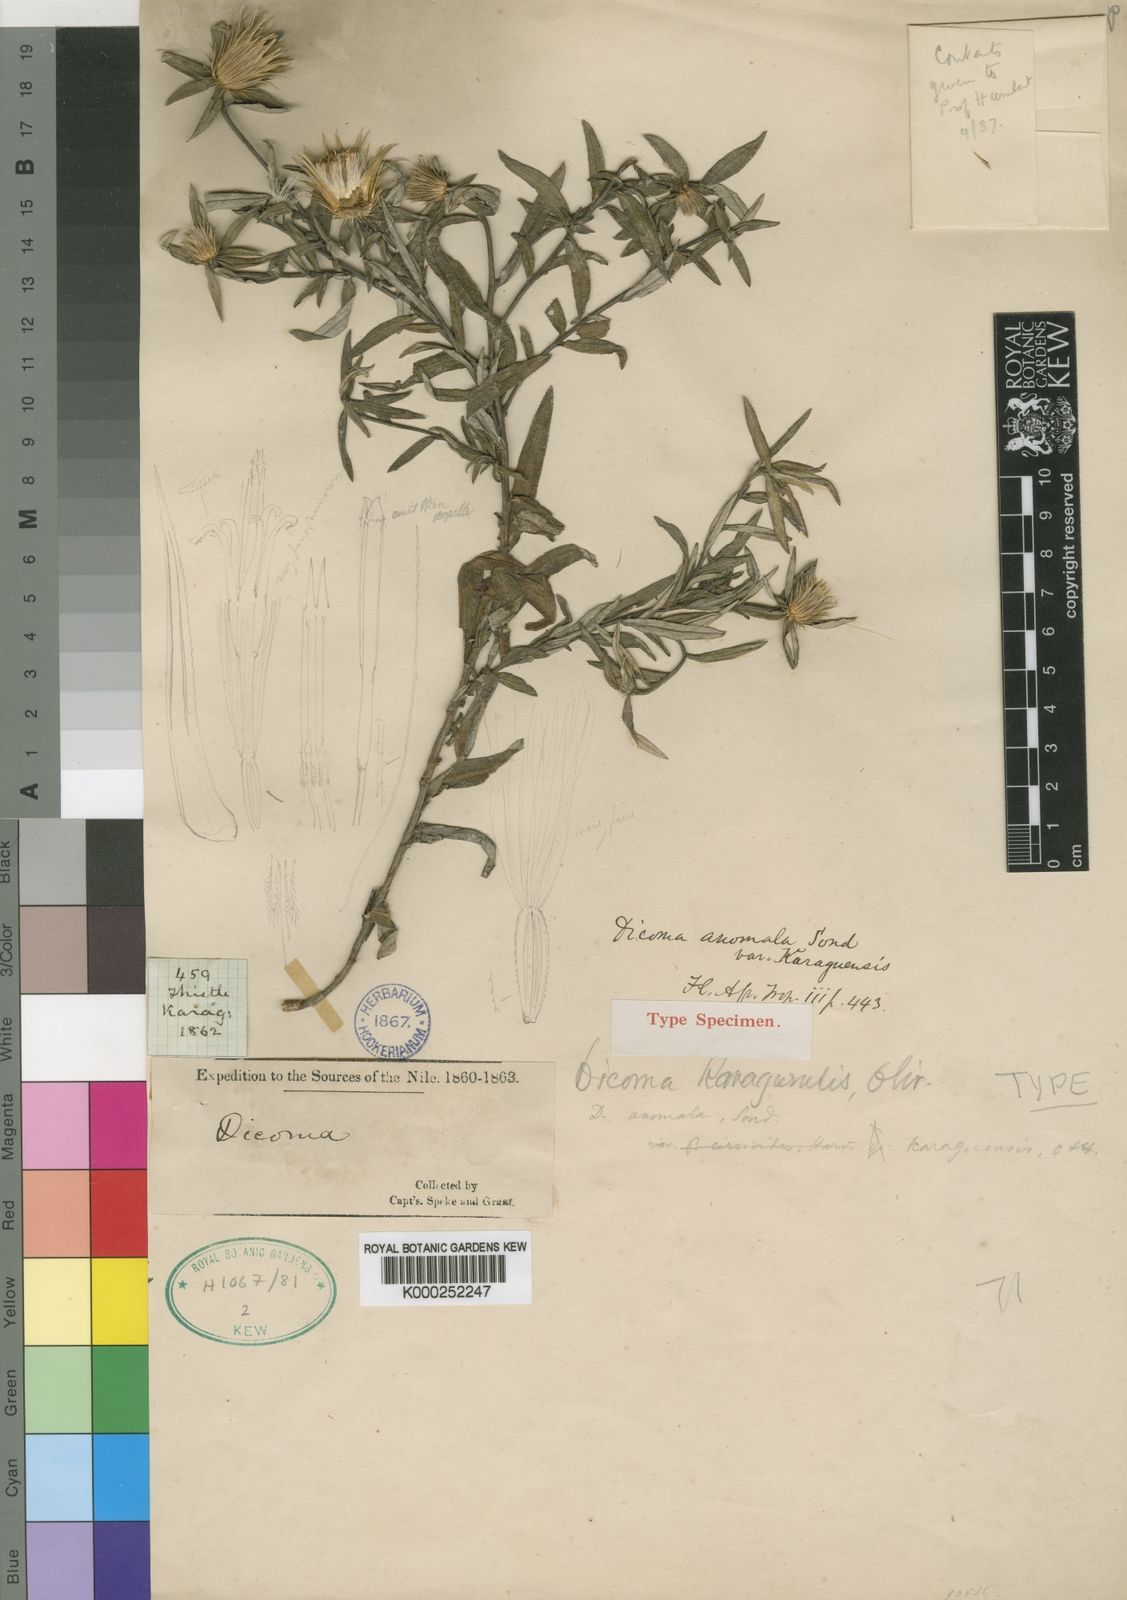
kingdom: Plantae
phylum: Tracheophyta
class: Magnoliopsida
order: Asterales
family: Asteraceae
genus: Dicoma
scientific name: Dicoma anomala
